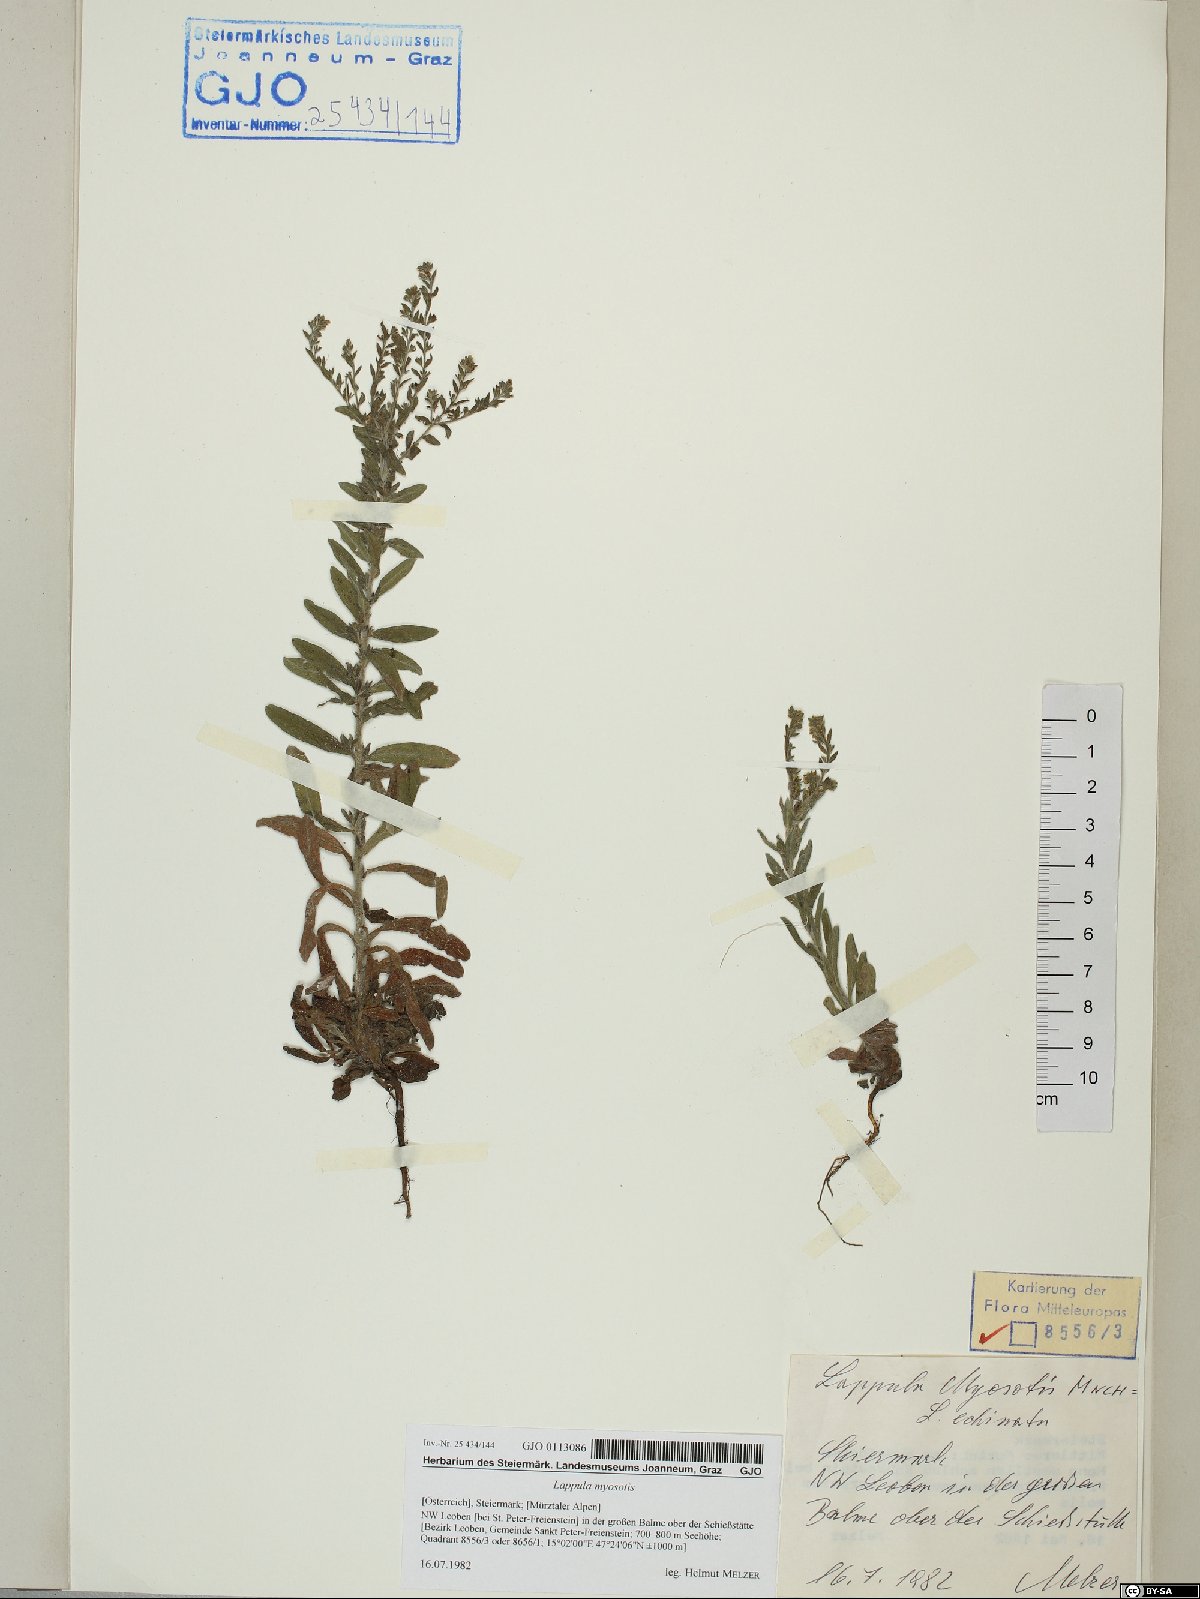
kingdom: Plantae
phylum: Tracheophyta
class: Magnoliopsida
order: Boraginales
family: Boraginaceae
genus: Lappula
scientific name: Lappula squarrosa
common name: European stickseed
